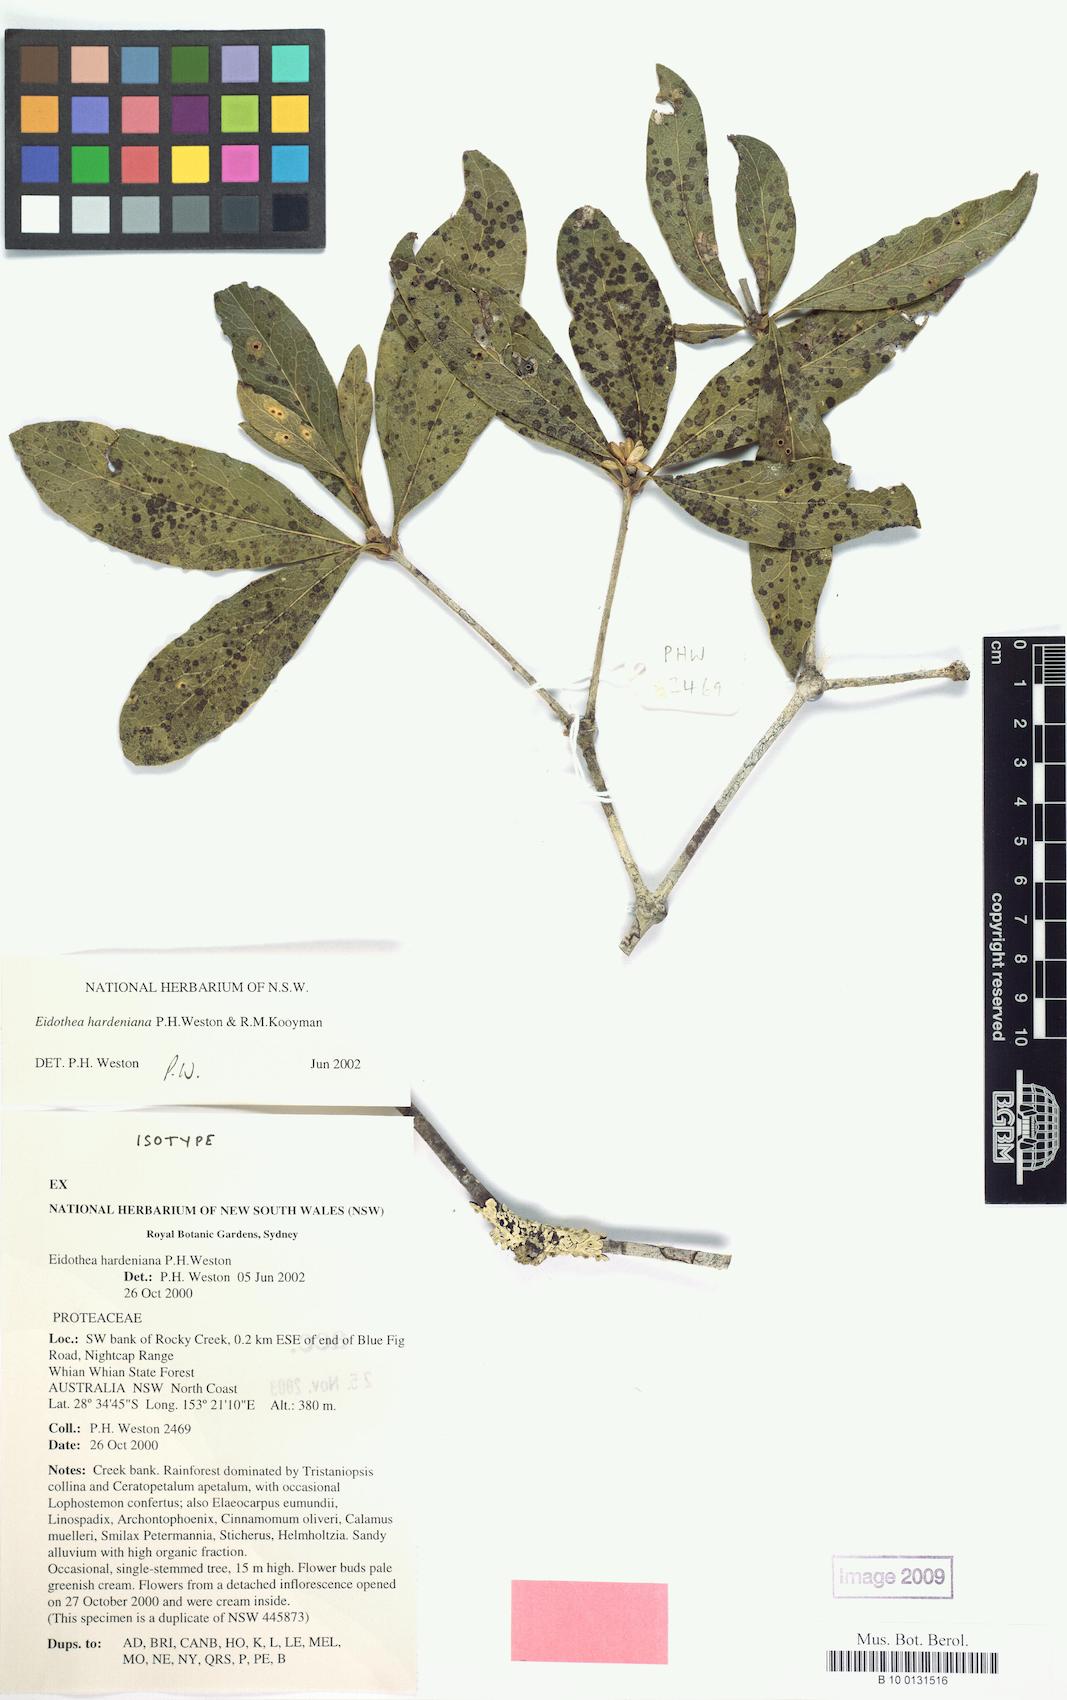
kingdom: Plantae
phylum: Tracheophyta
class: Magnoliopsida
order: Proteales
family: Proteaceae
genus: Eidothea
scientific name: Eidothea hardeniana
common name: Nightcap oak
